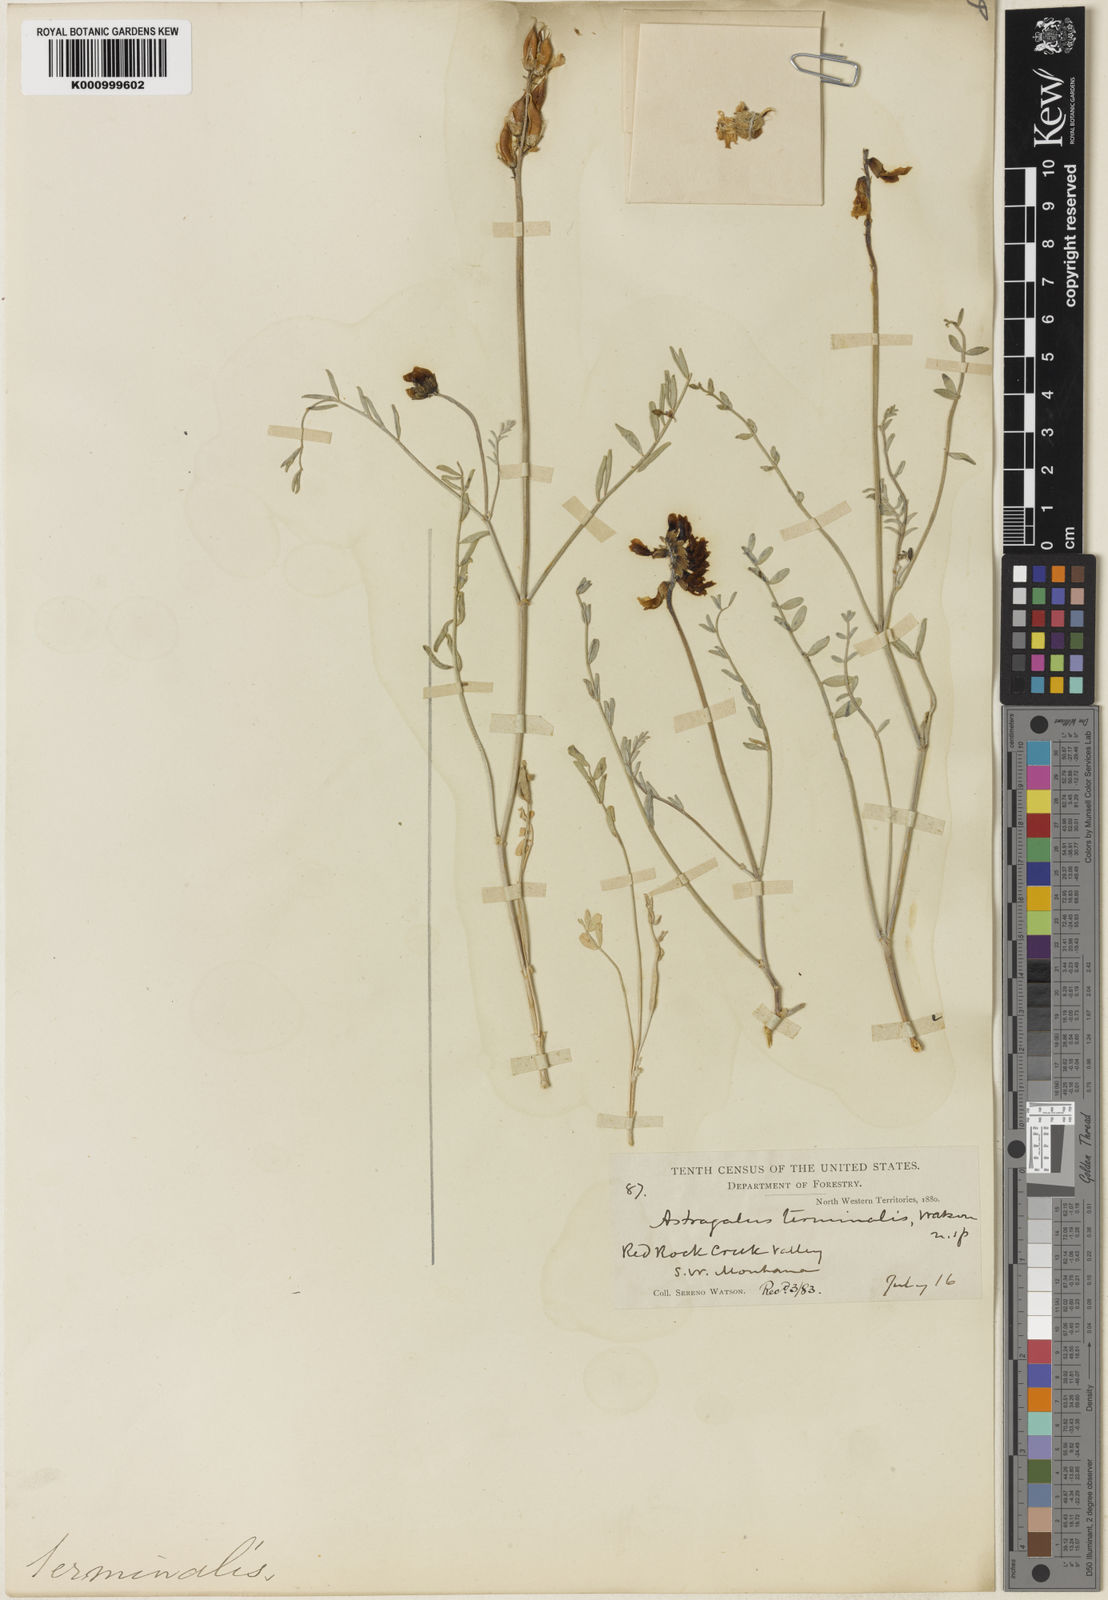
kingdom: Plantae
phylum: Tracheophyta
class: Magnoliopsida
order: Fabales
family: Fabaceae
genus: Astragalus
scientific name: Astragalus terminalis
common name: Railhead milkvetch
